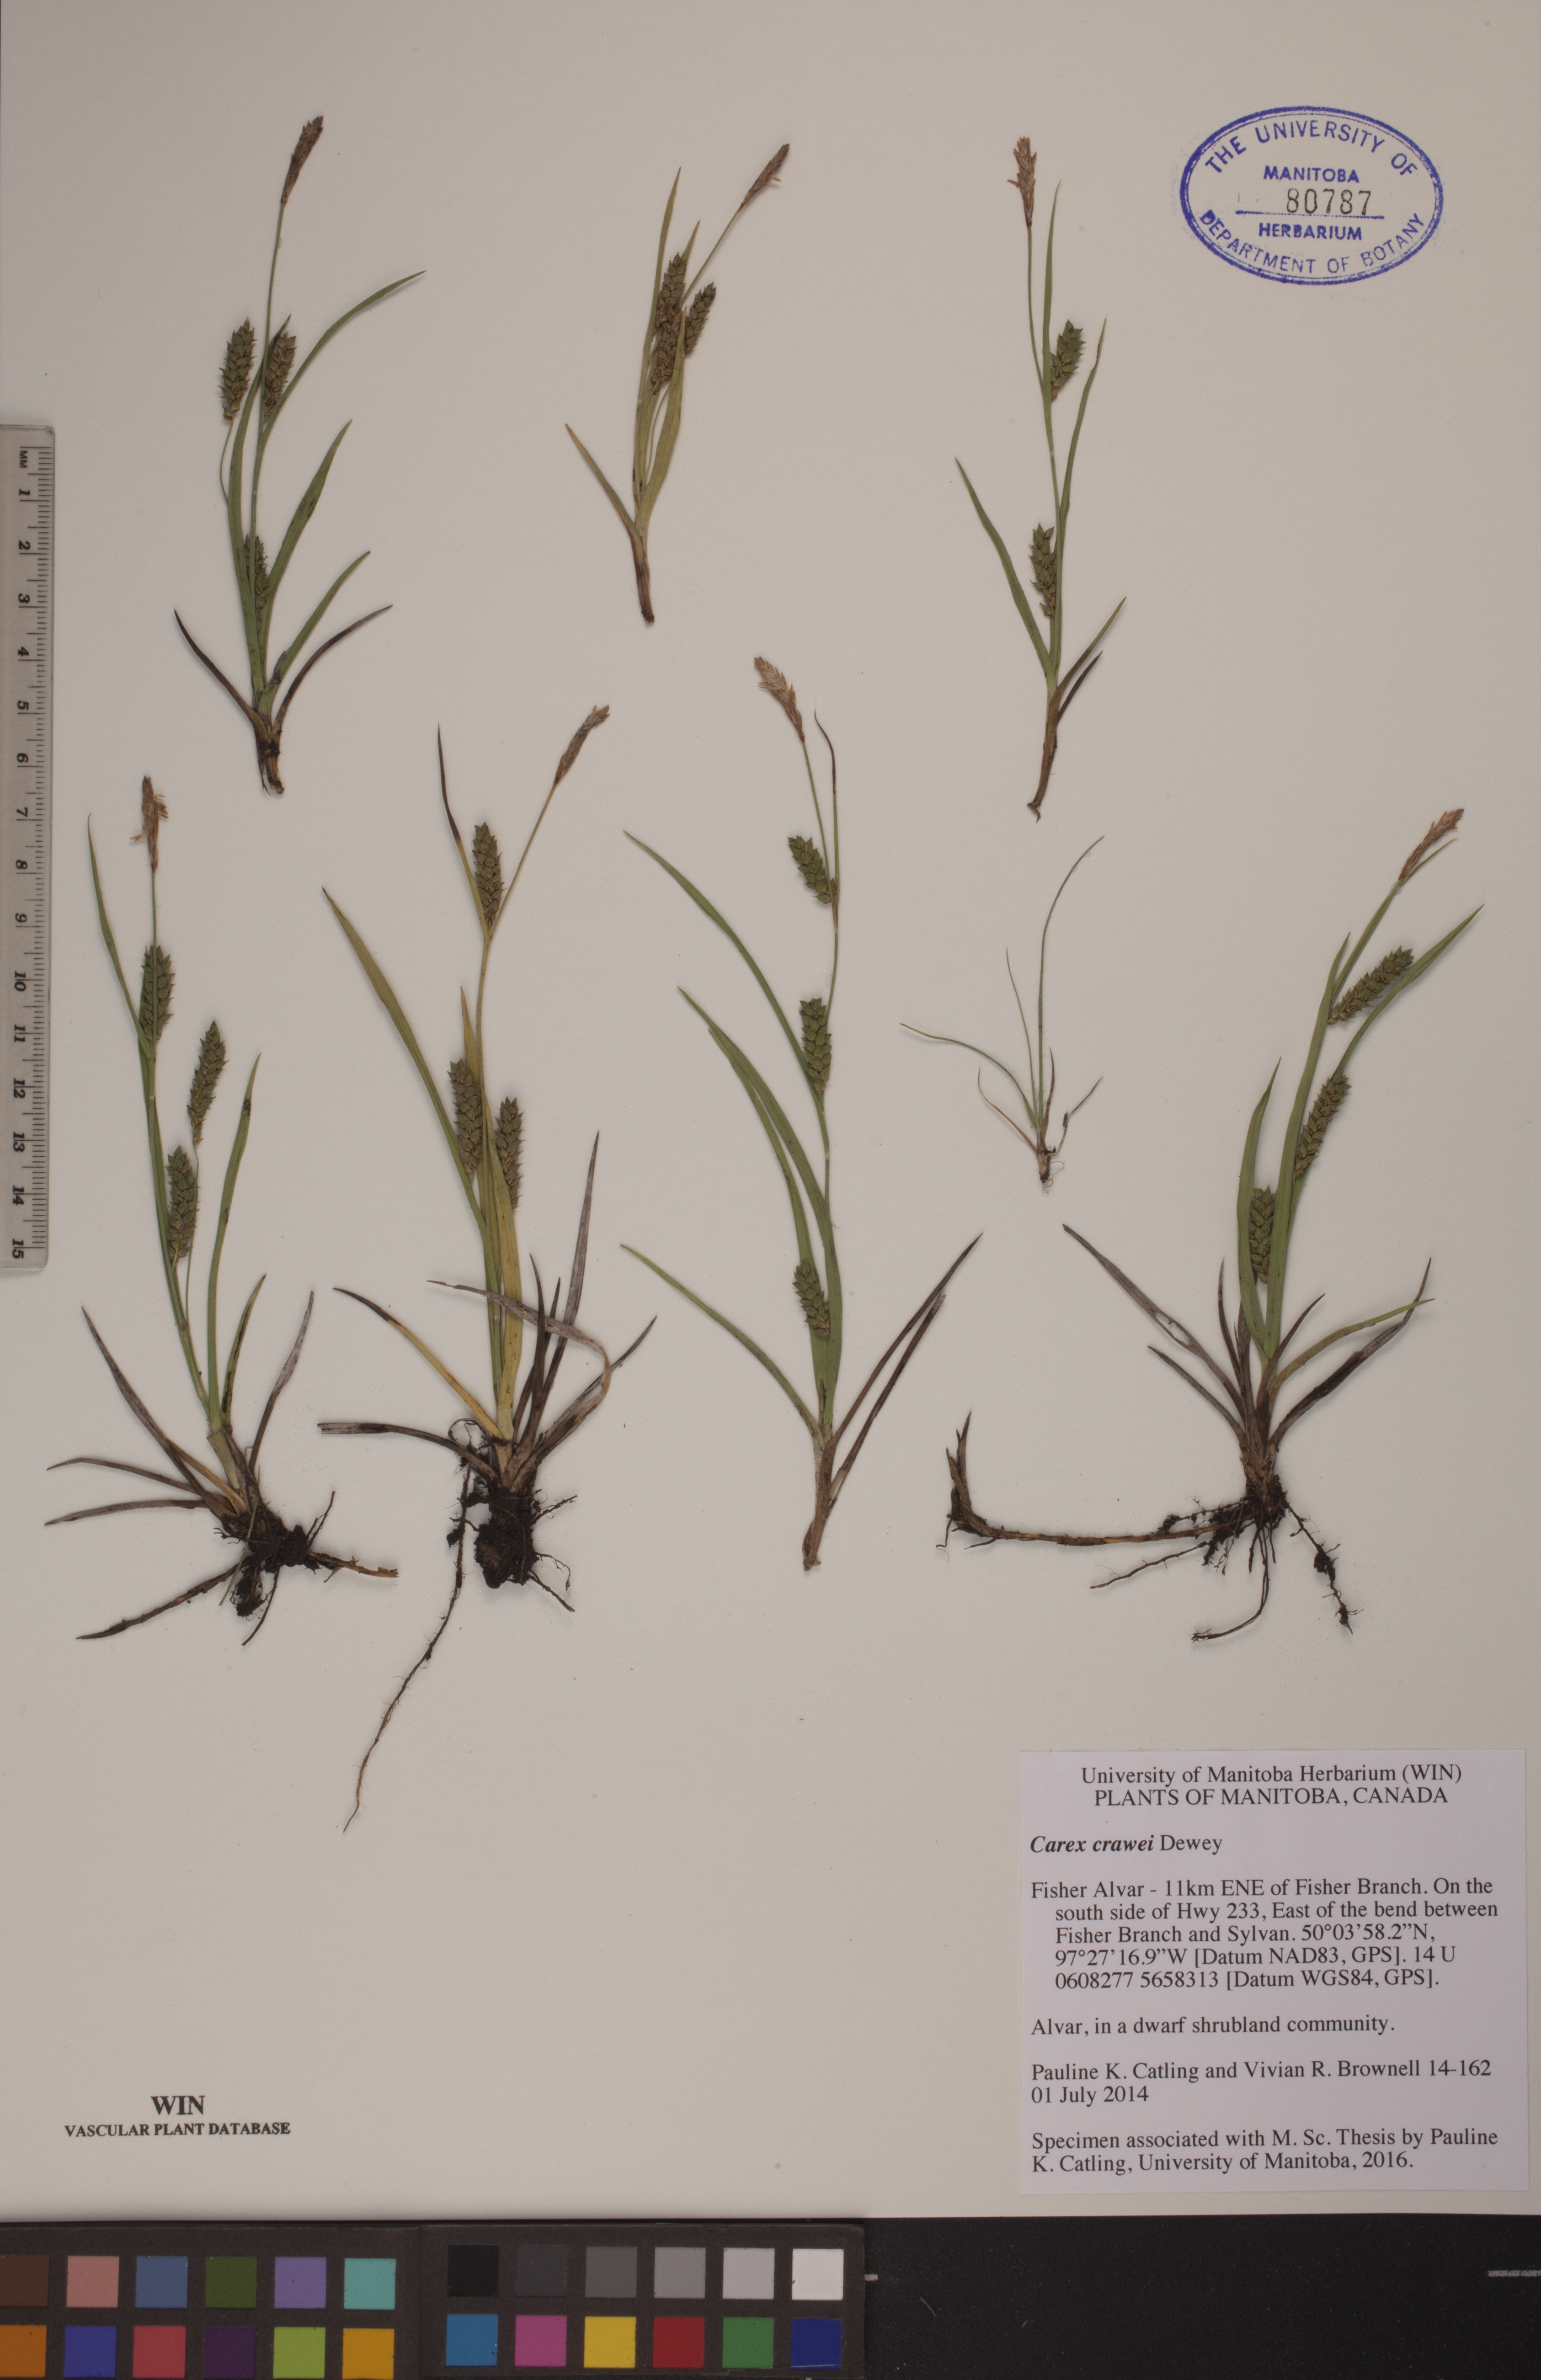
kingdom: Plantae
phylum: Tracheophyta
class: Liliopsida
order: Poales
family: Cyperaceae
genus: Carex
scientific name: Carex crawei
